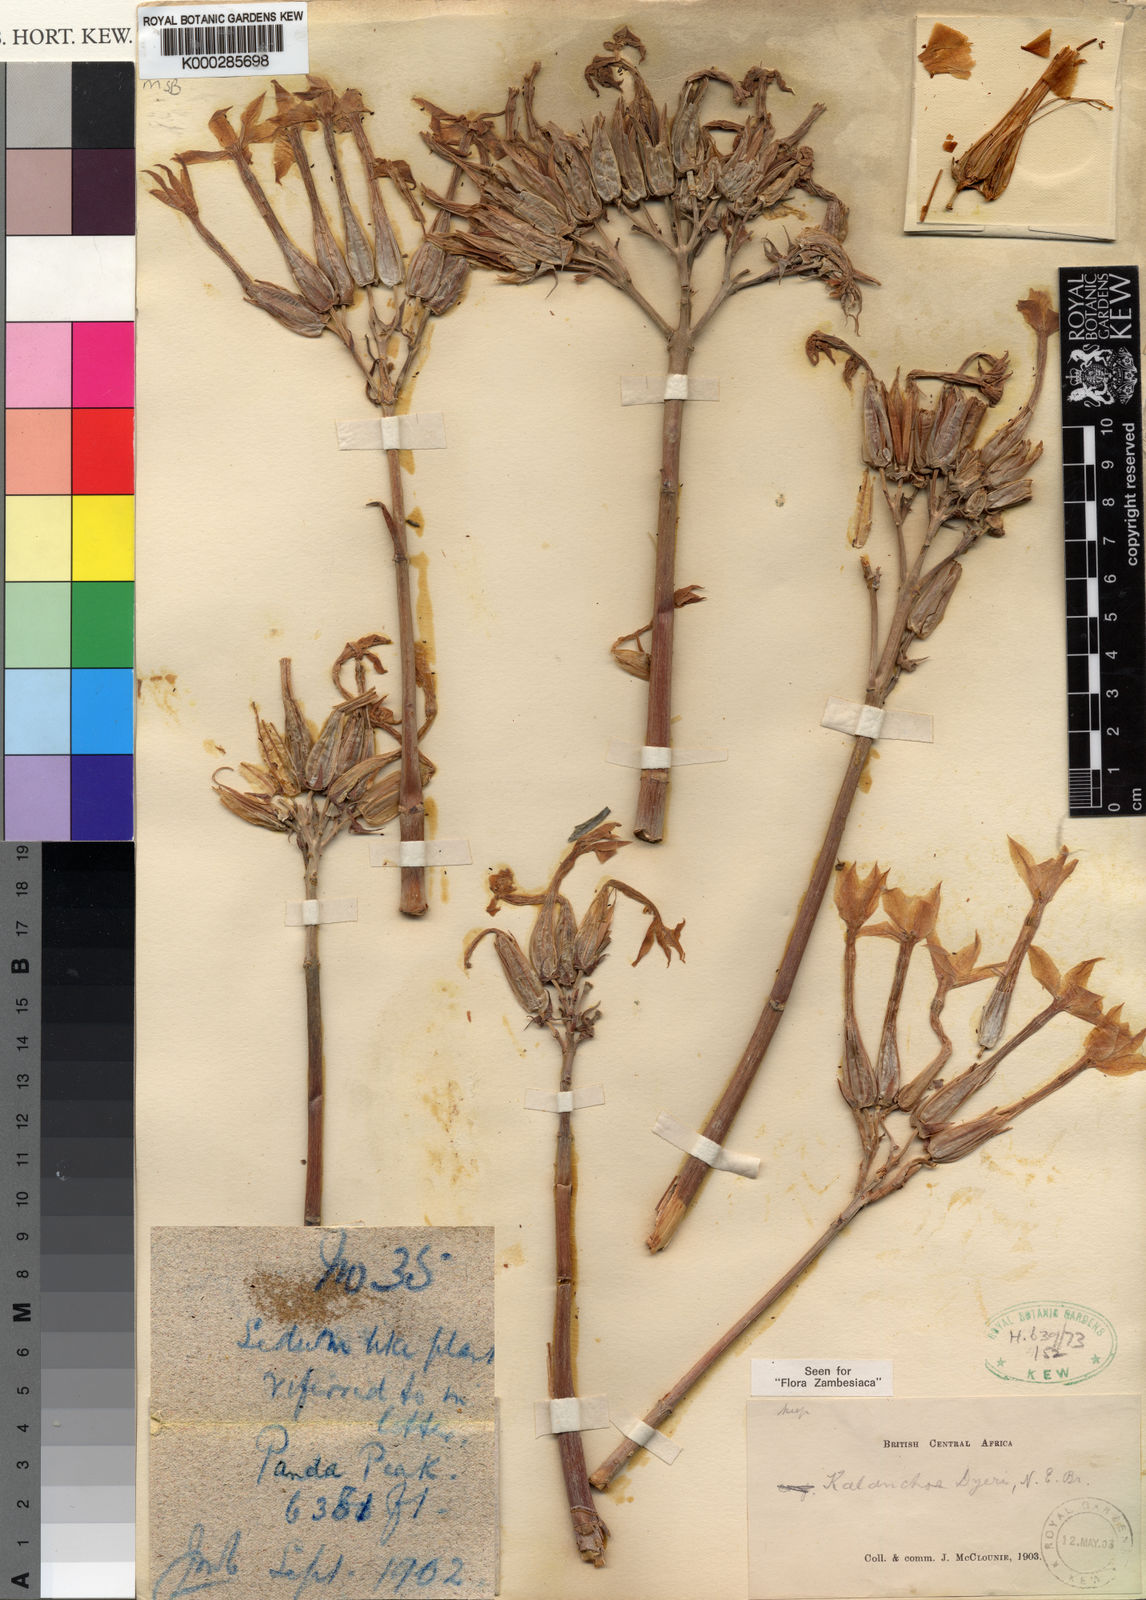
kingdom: Plantae
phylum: Tracheophyta
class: Magnoliopsida
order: Saxifragales
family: Crassulaceae
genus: Kalanchoe
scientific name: Kalanchoe dyeri
